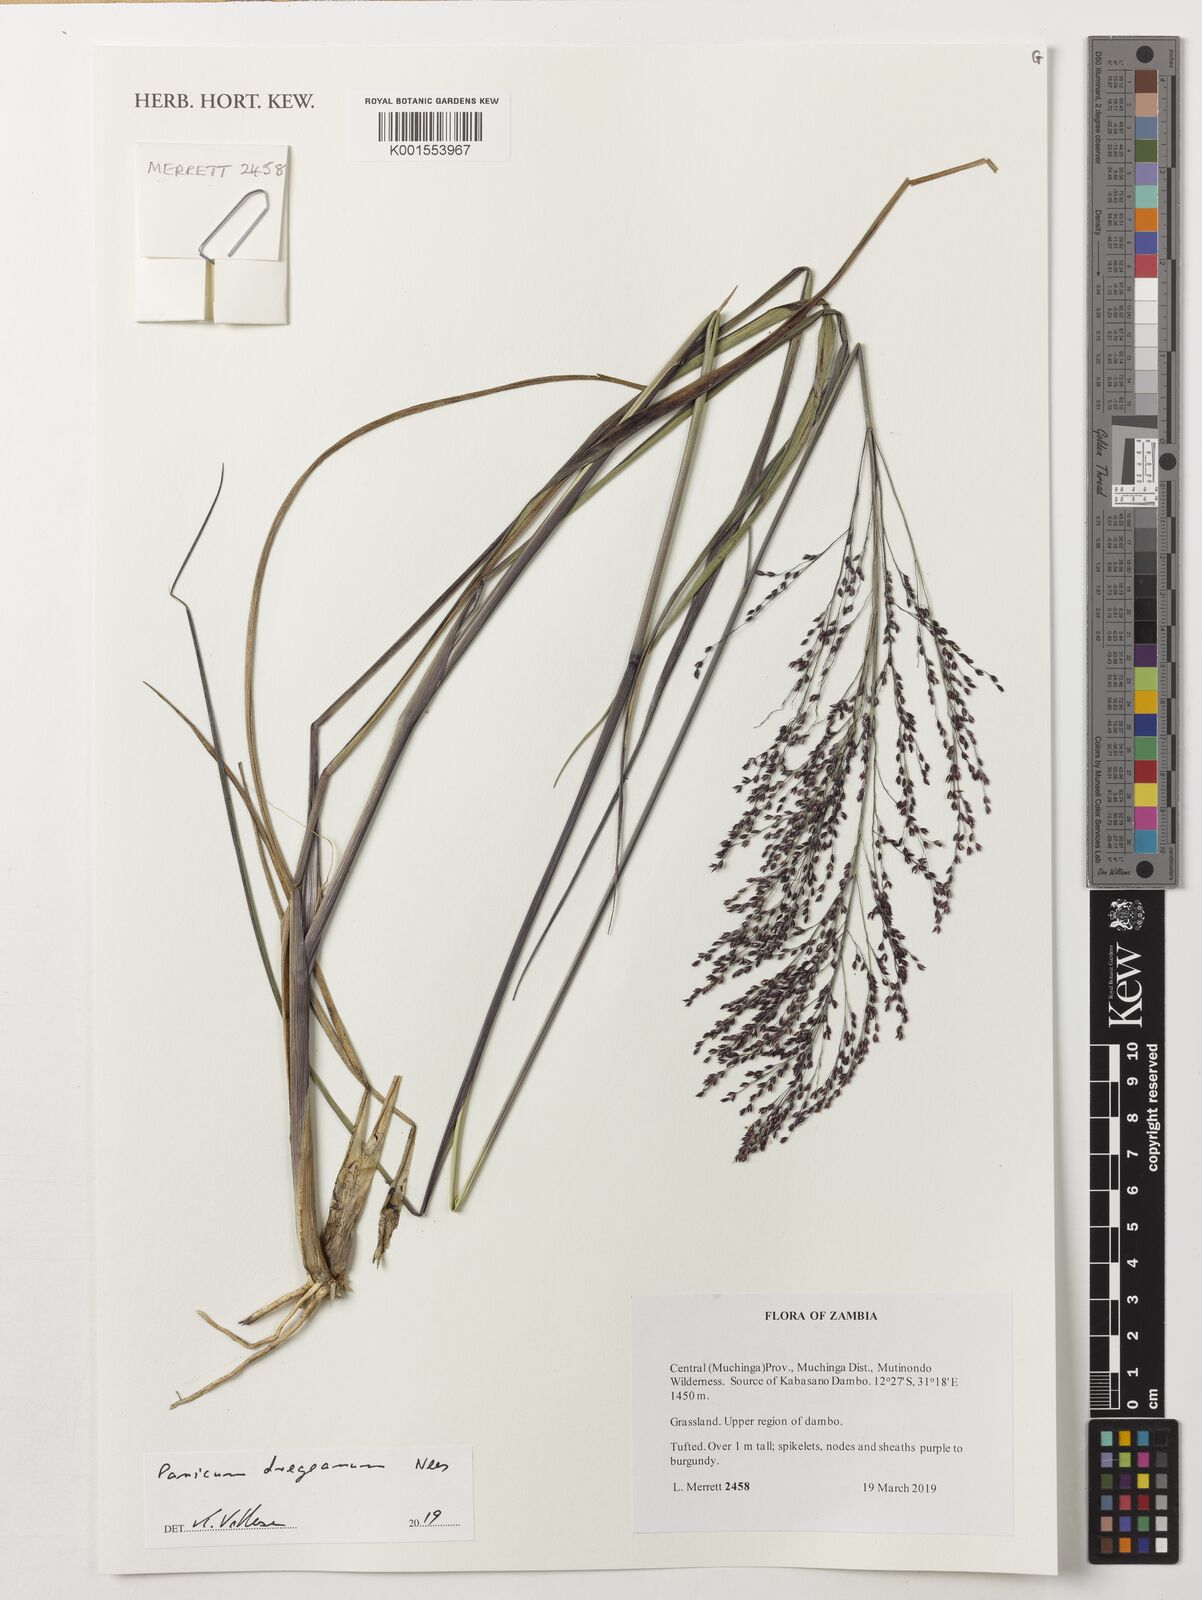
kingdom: Plantae
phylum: Tracheophyta
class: Liliopsida
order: Poales
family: Poaceae
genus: Panicum
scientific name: Panicum dregeanum
